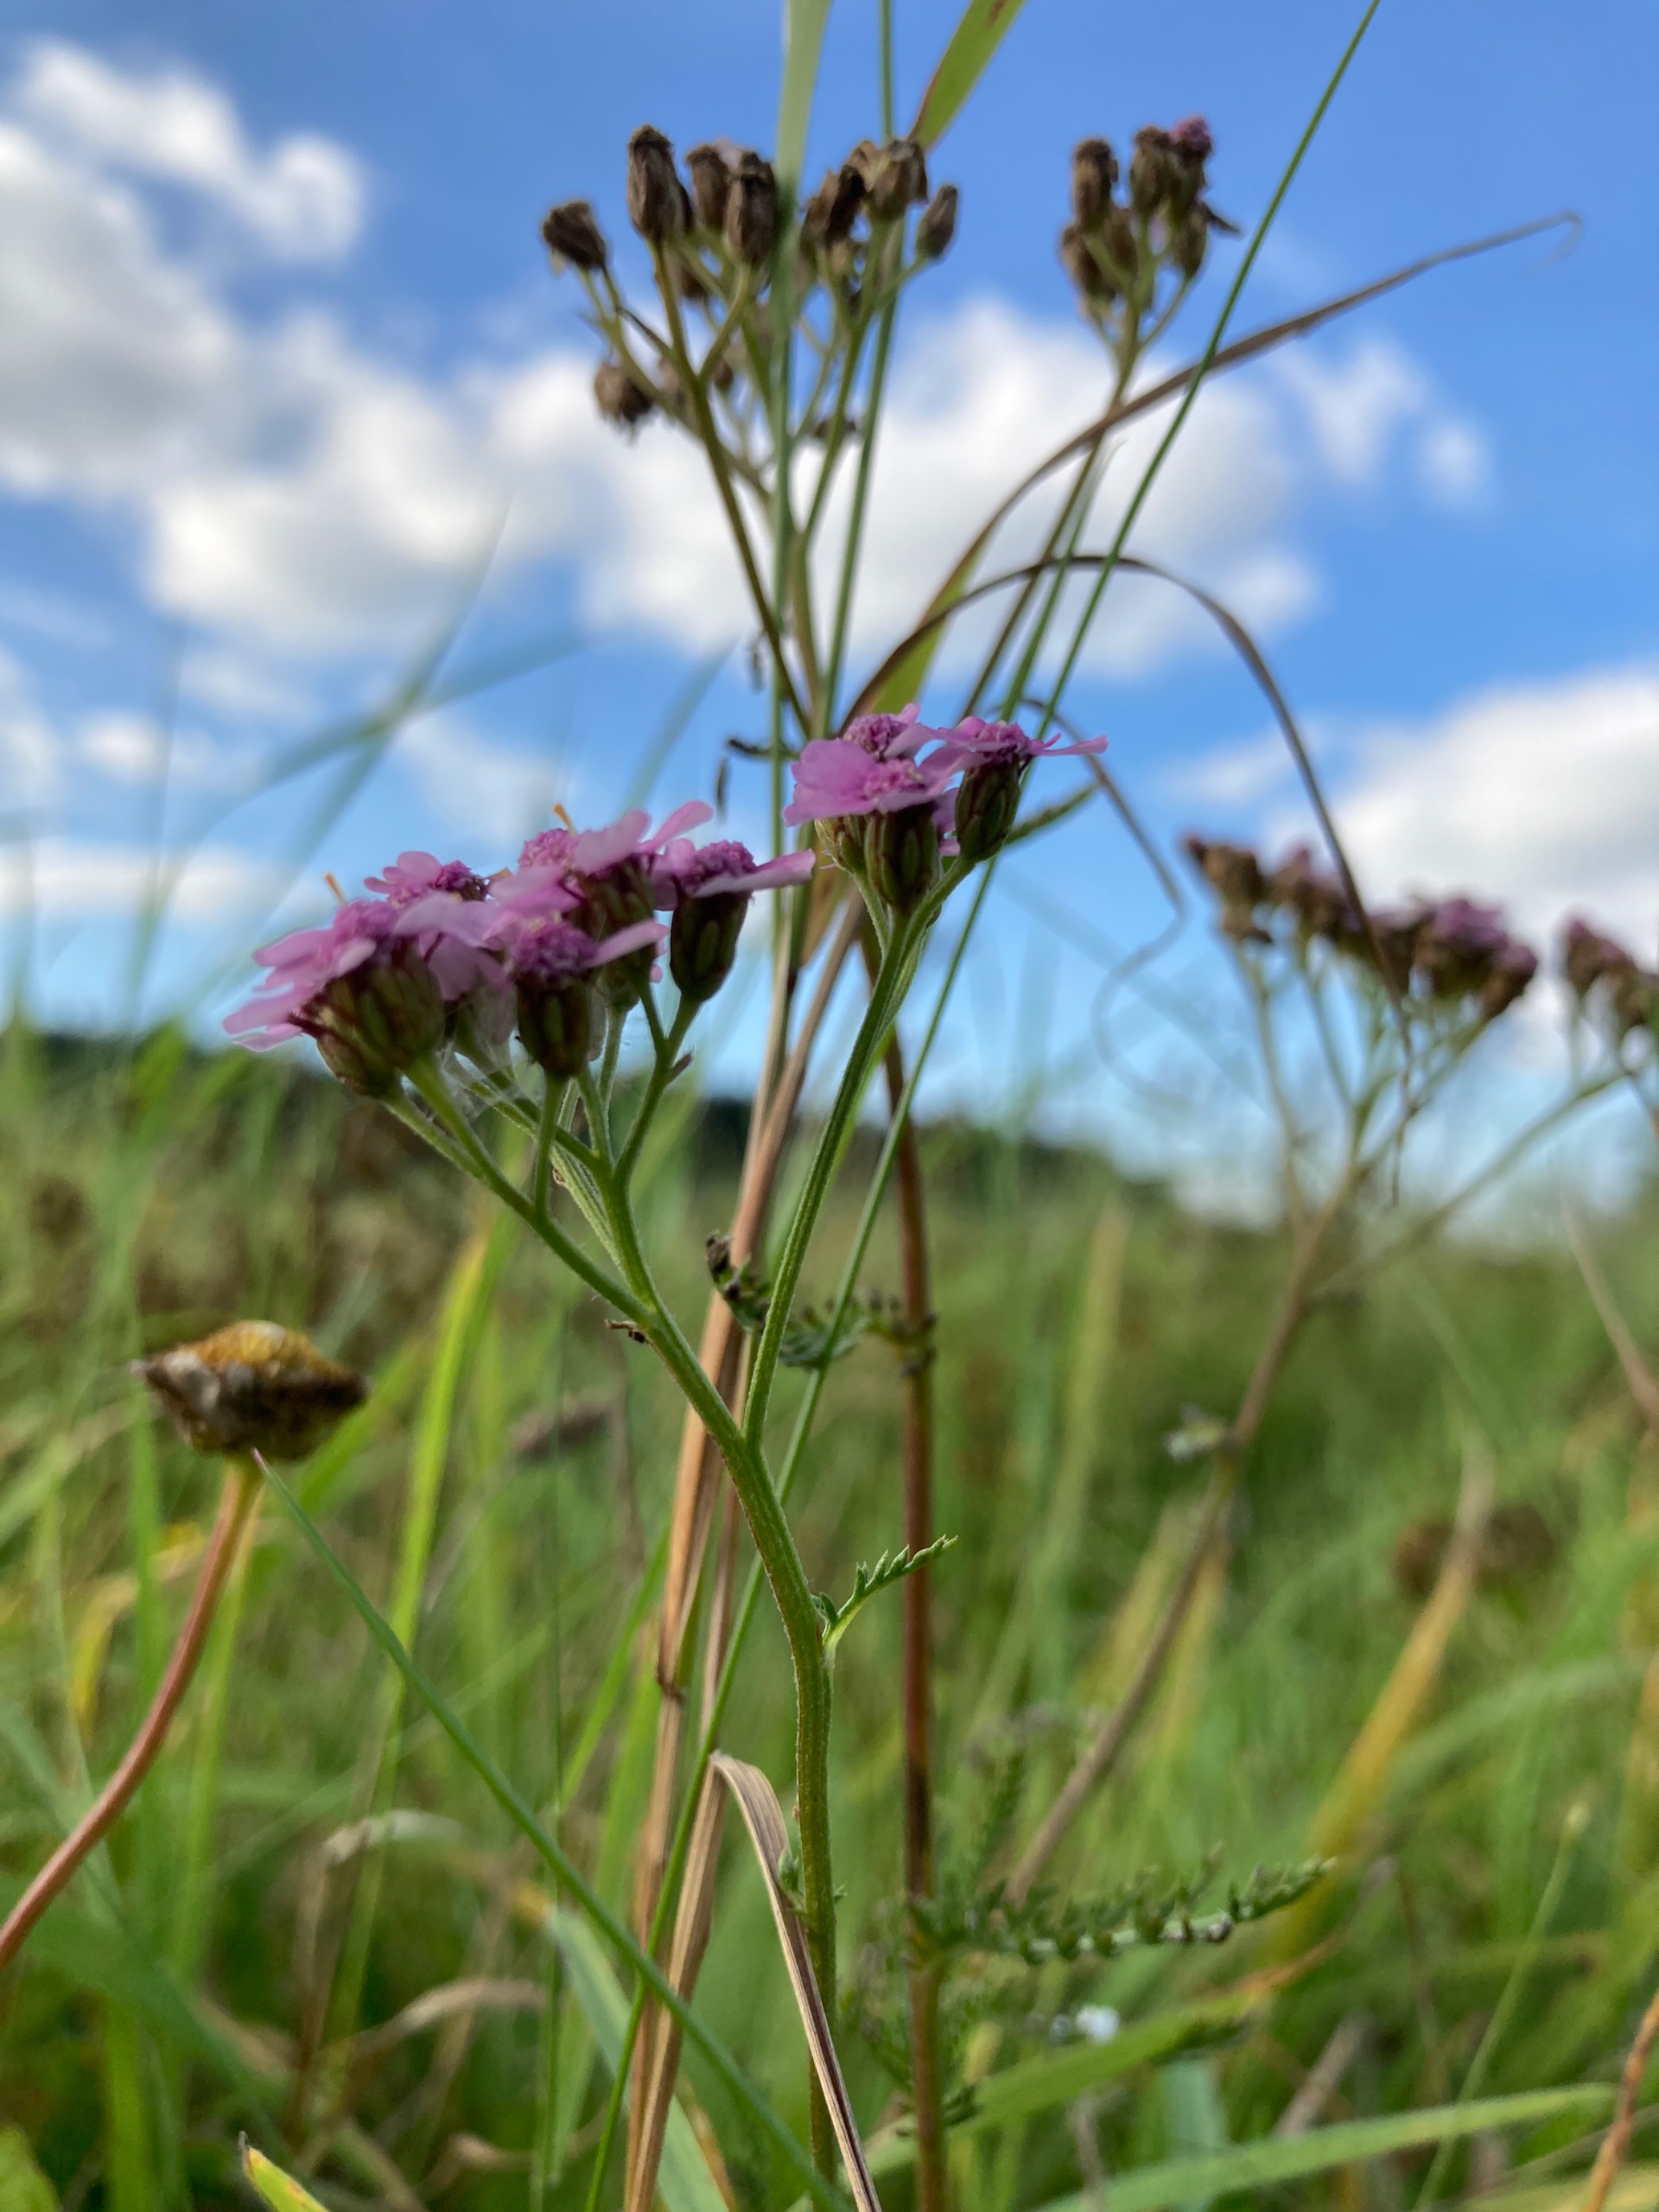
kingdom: Plantae
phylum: Tracheophyta
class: Magnoliopsida
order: Asterales
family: Asteraceae
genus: Achillea
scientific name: Achillea millefolium
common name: Almindelig røllike
